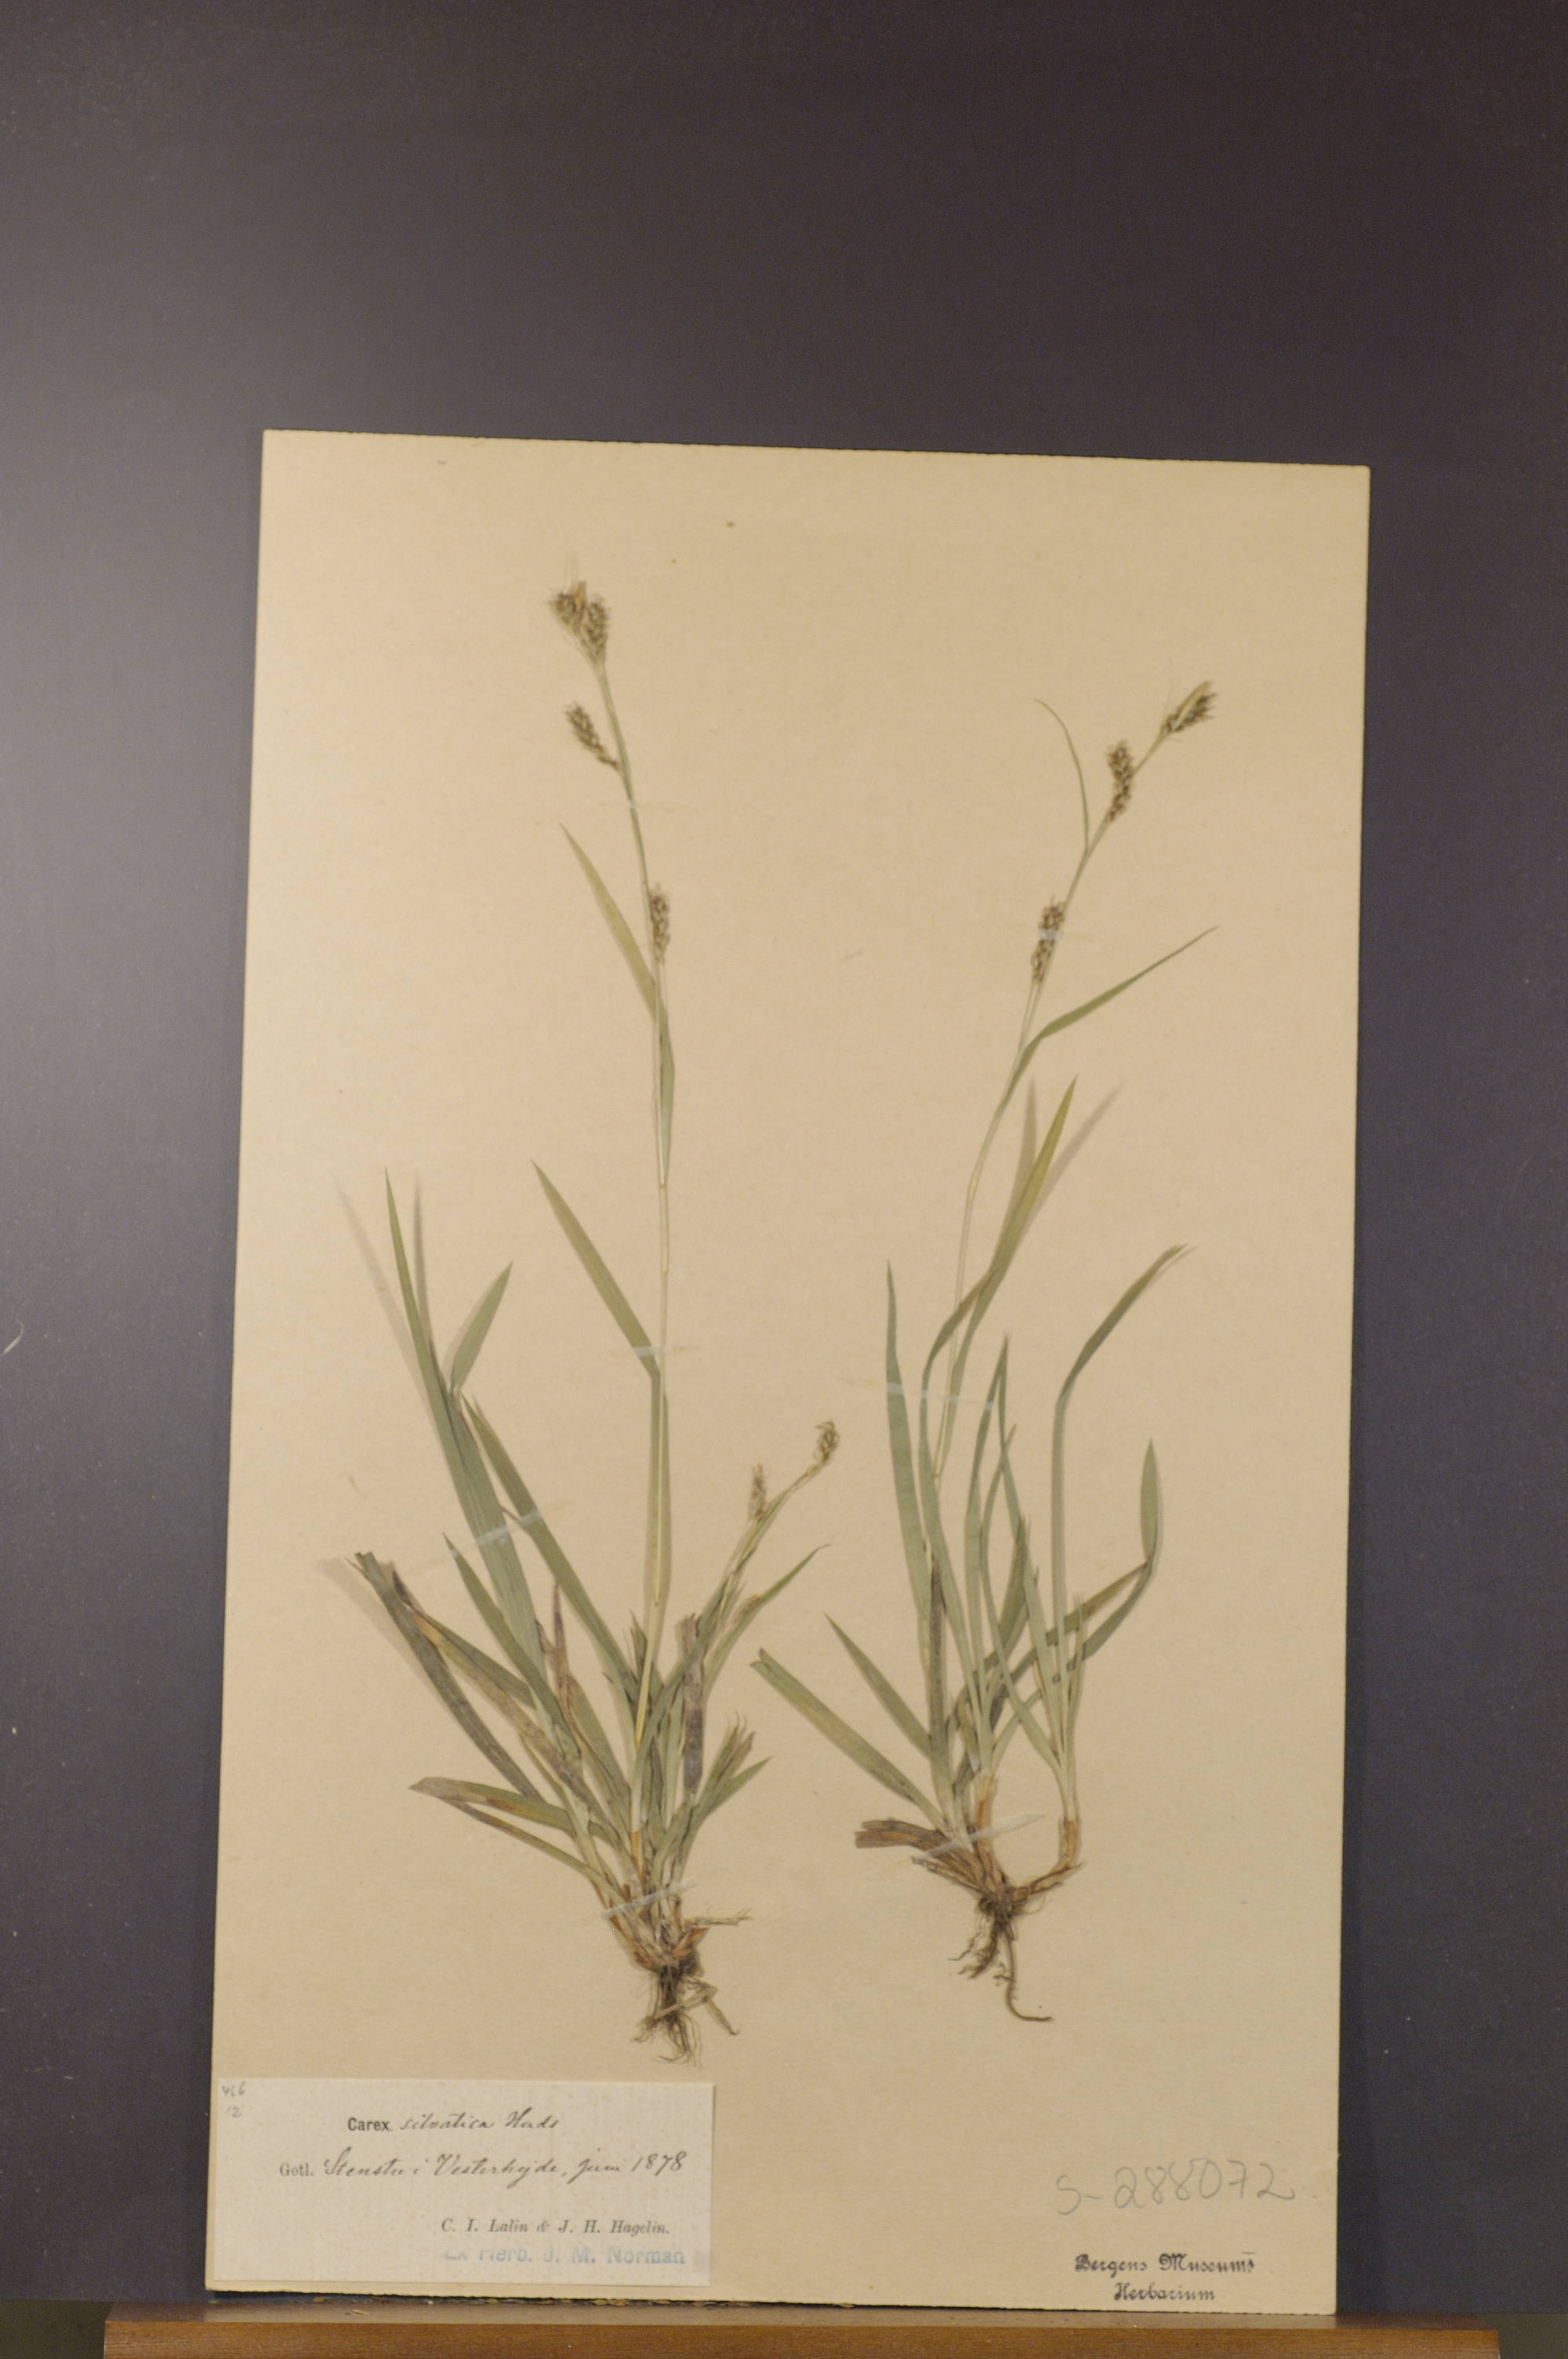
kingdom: Plantae
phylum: Tracheophyta
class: Liliopsida
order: Poales
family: Cyperaceae
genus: Carex
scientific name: Carex sylvatica
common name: Wood-sedge
